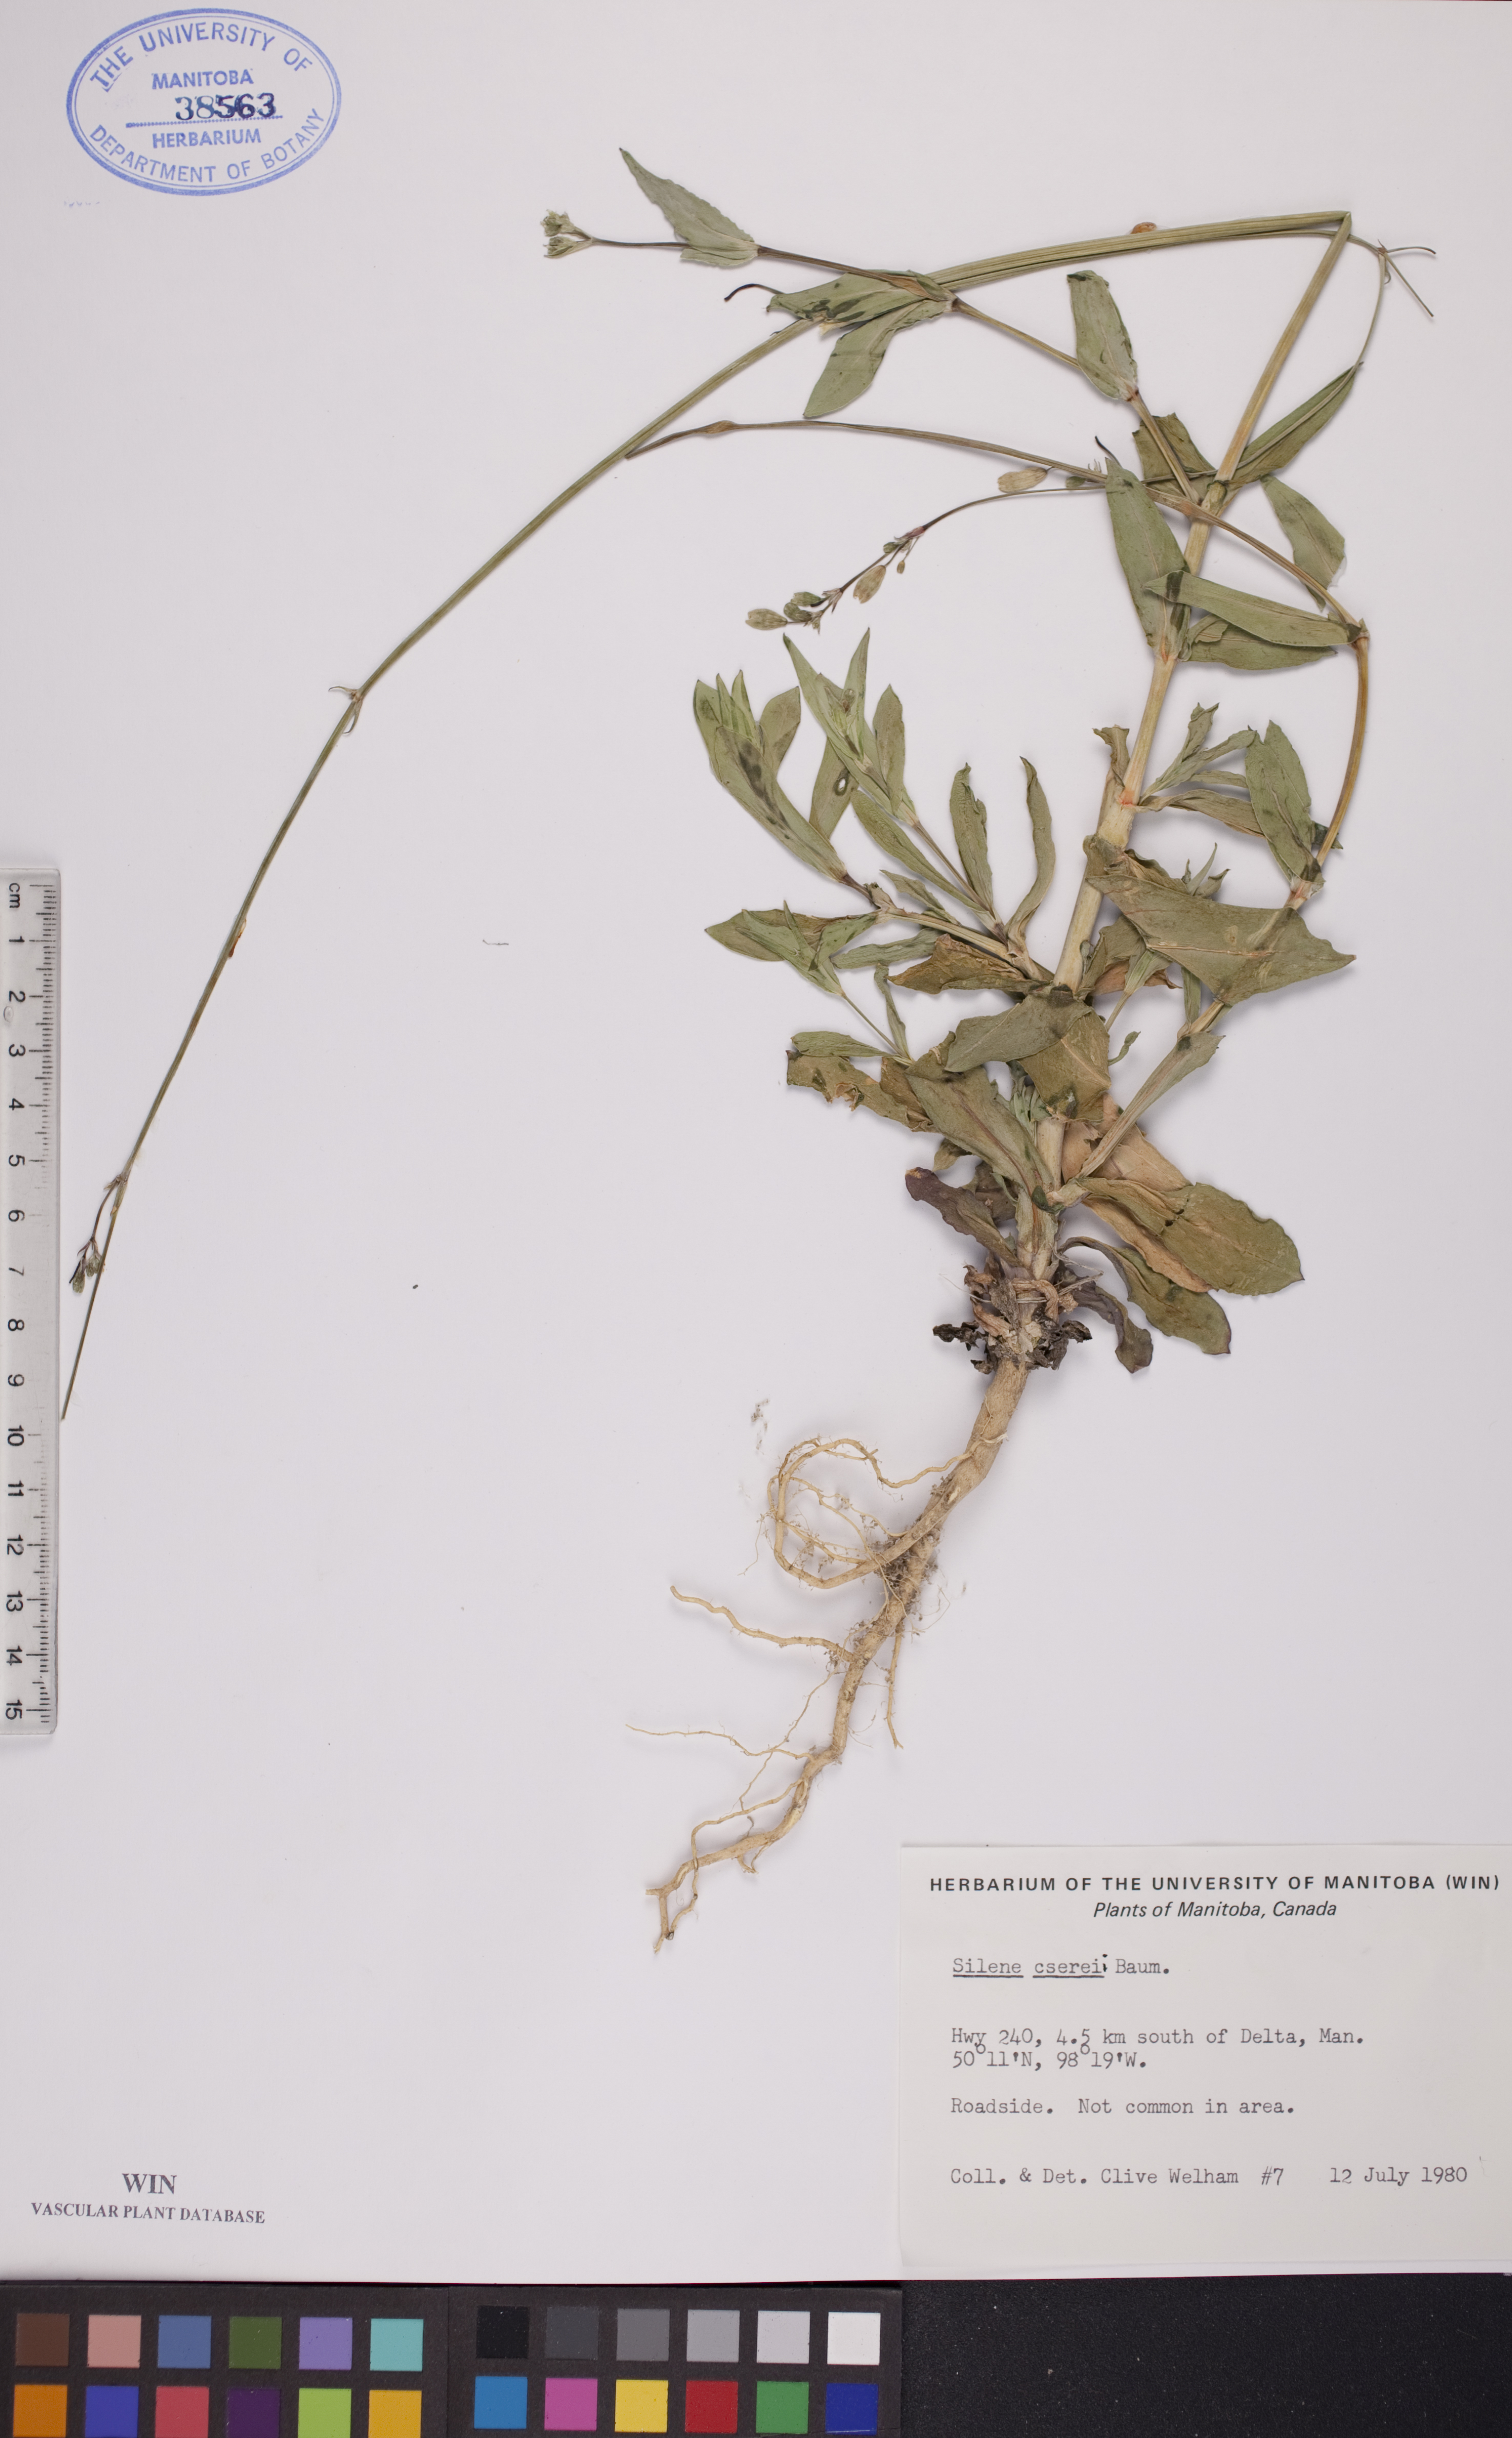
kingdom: Plantae
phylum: Tracheophyta
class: Magnoliopsida
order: Caryophyllales
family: Caryophyllaceae
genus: Silene
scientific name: Silene csereii
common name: Balkan catchfly
